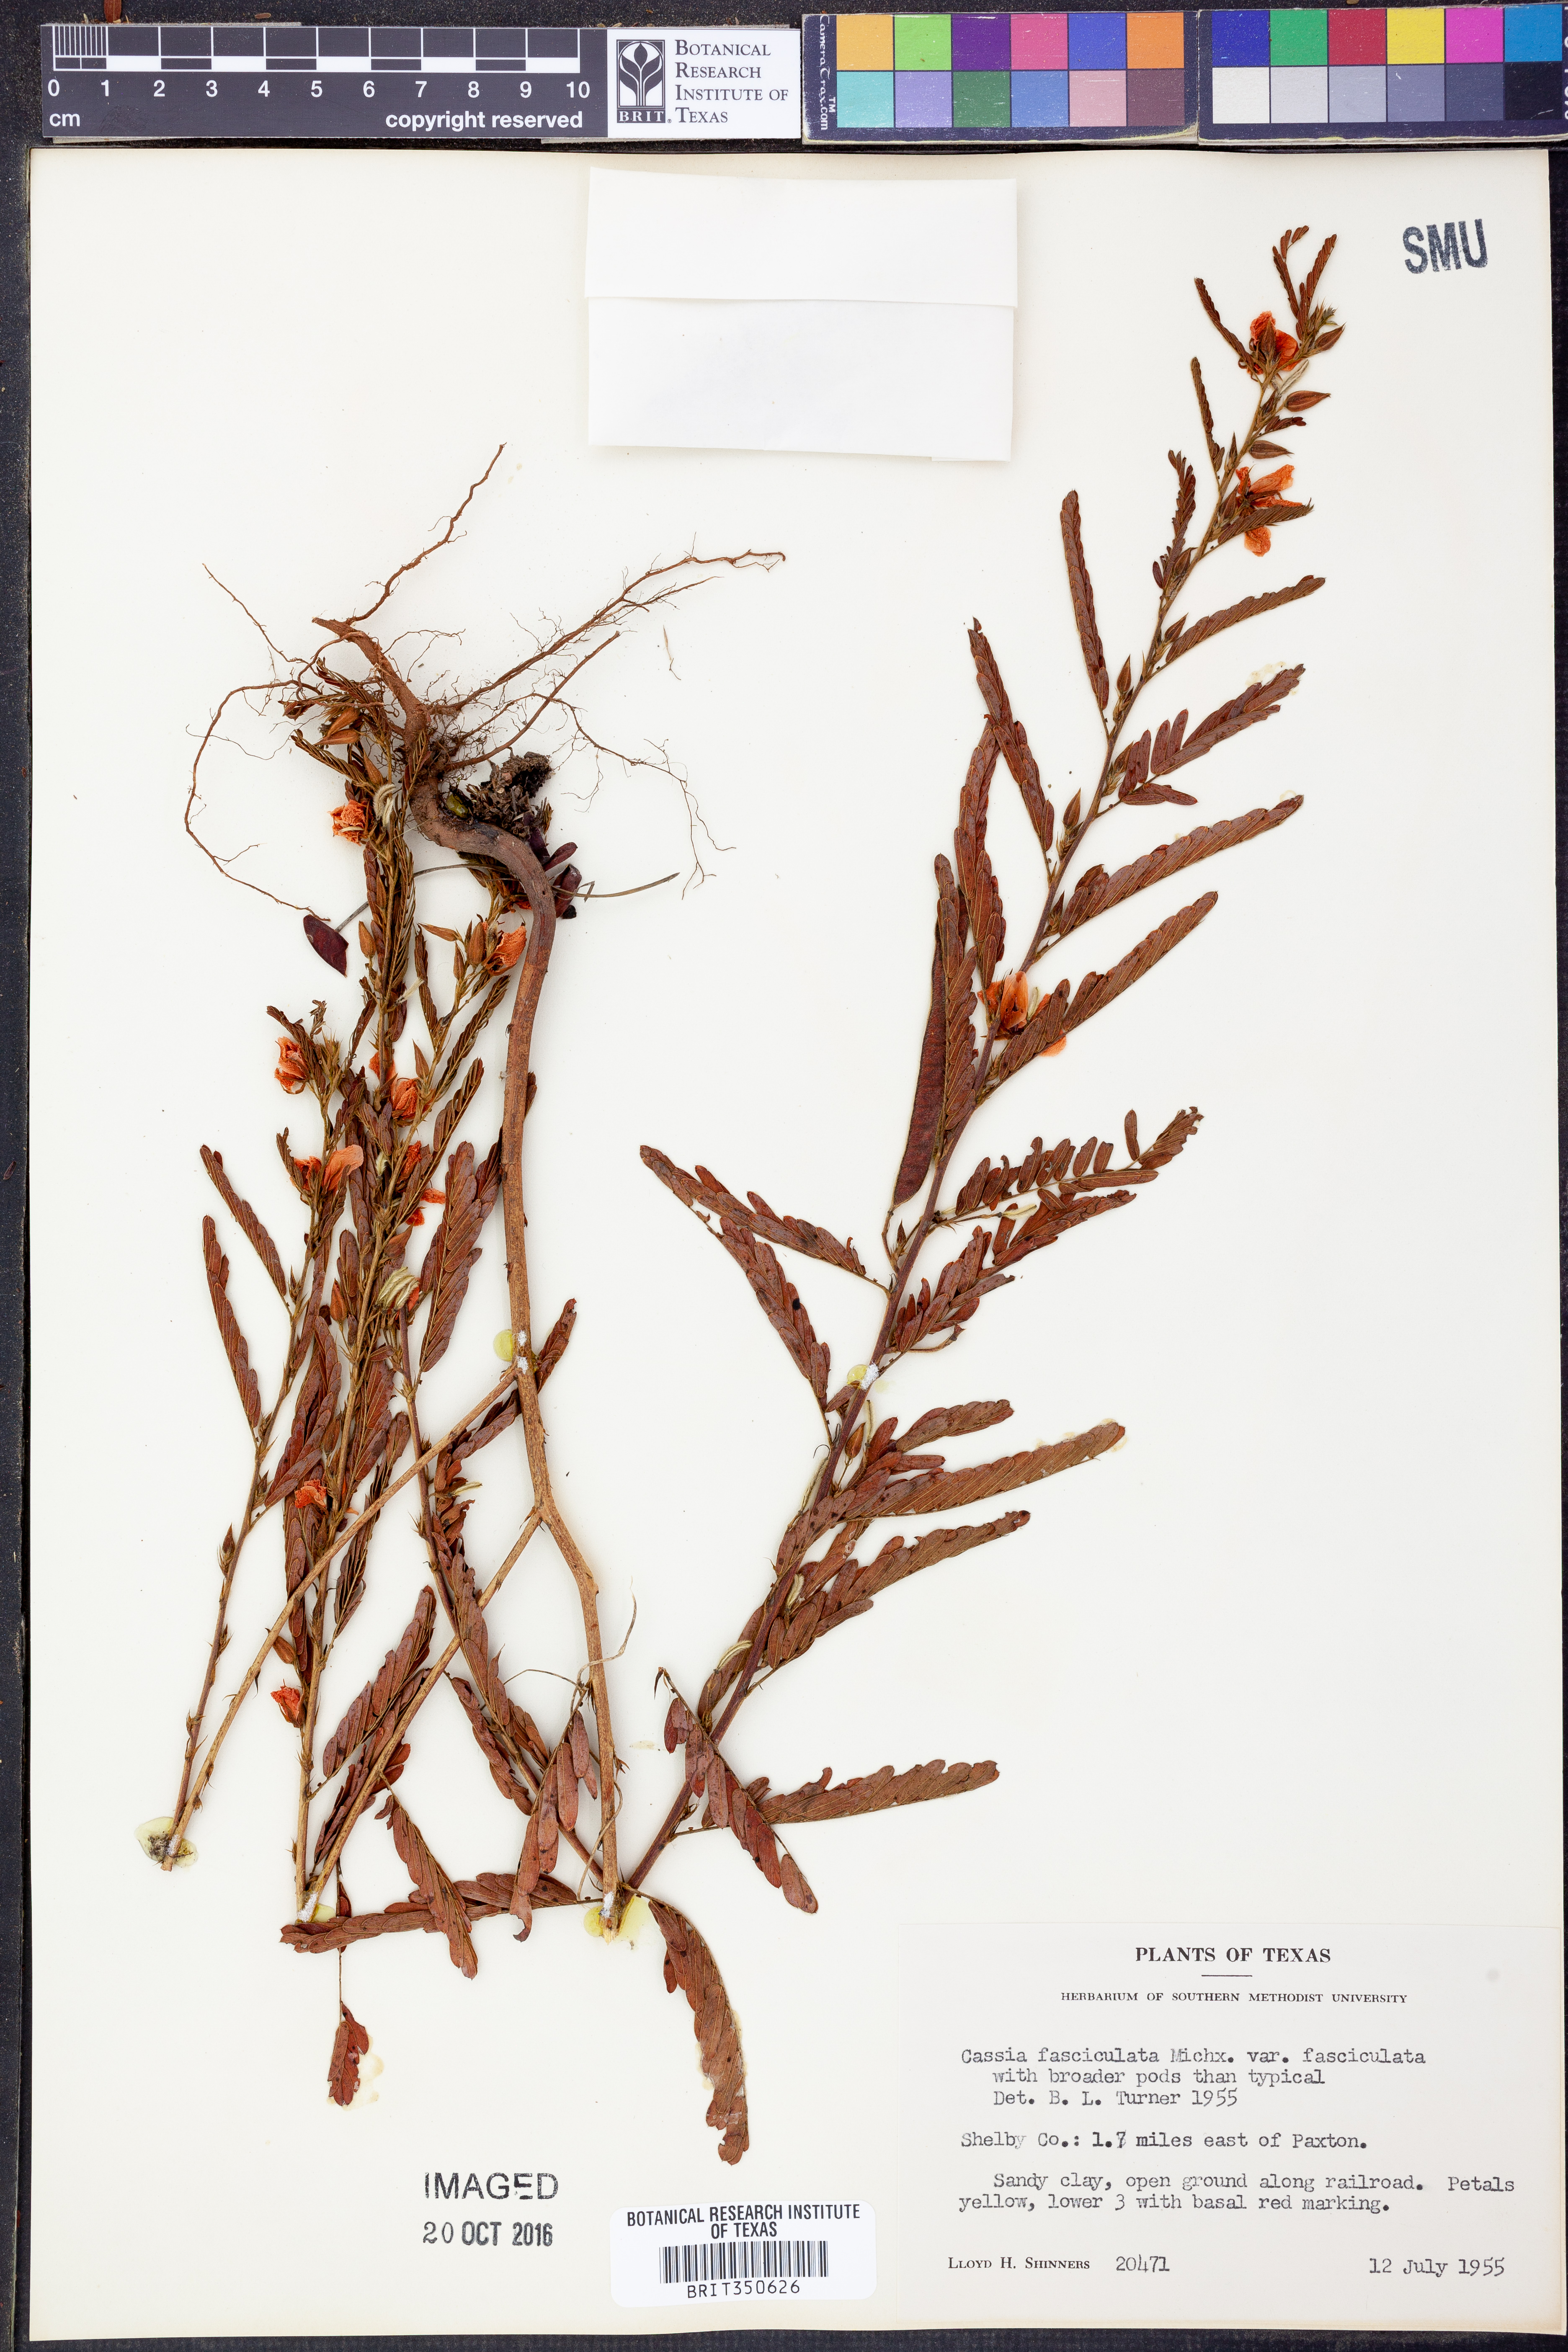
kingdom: Plantae
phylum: Tracheophyta
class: Magnoliopsida
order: Fabales
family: Fabaceae
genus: Chamaecrista
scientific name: Chamaecrista fasciculata
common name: Golden cassia
